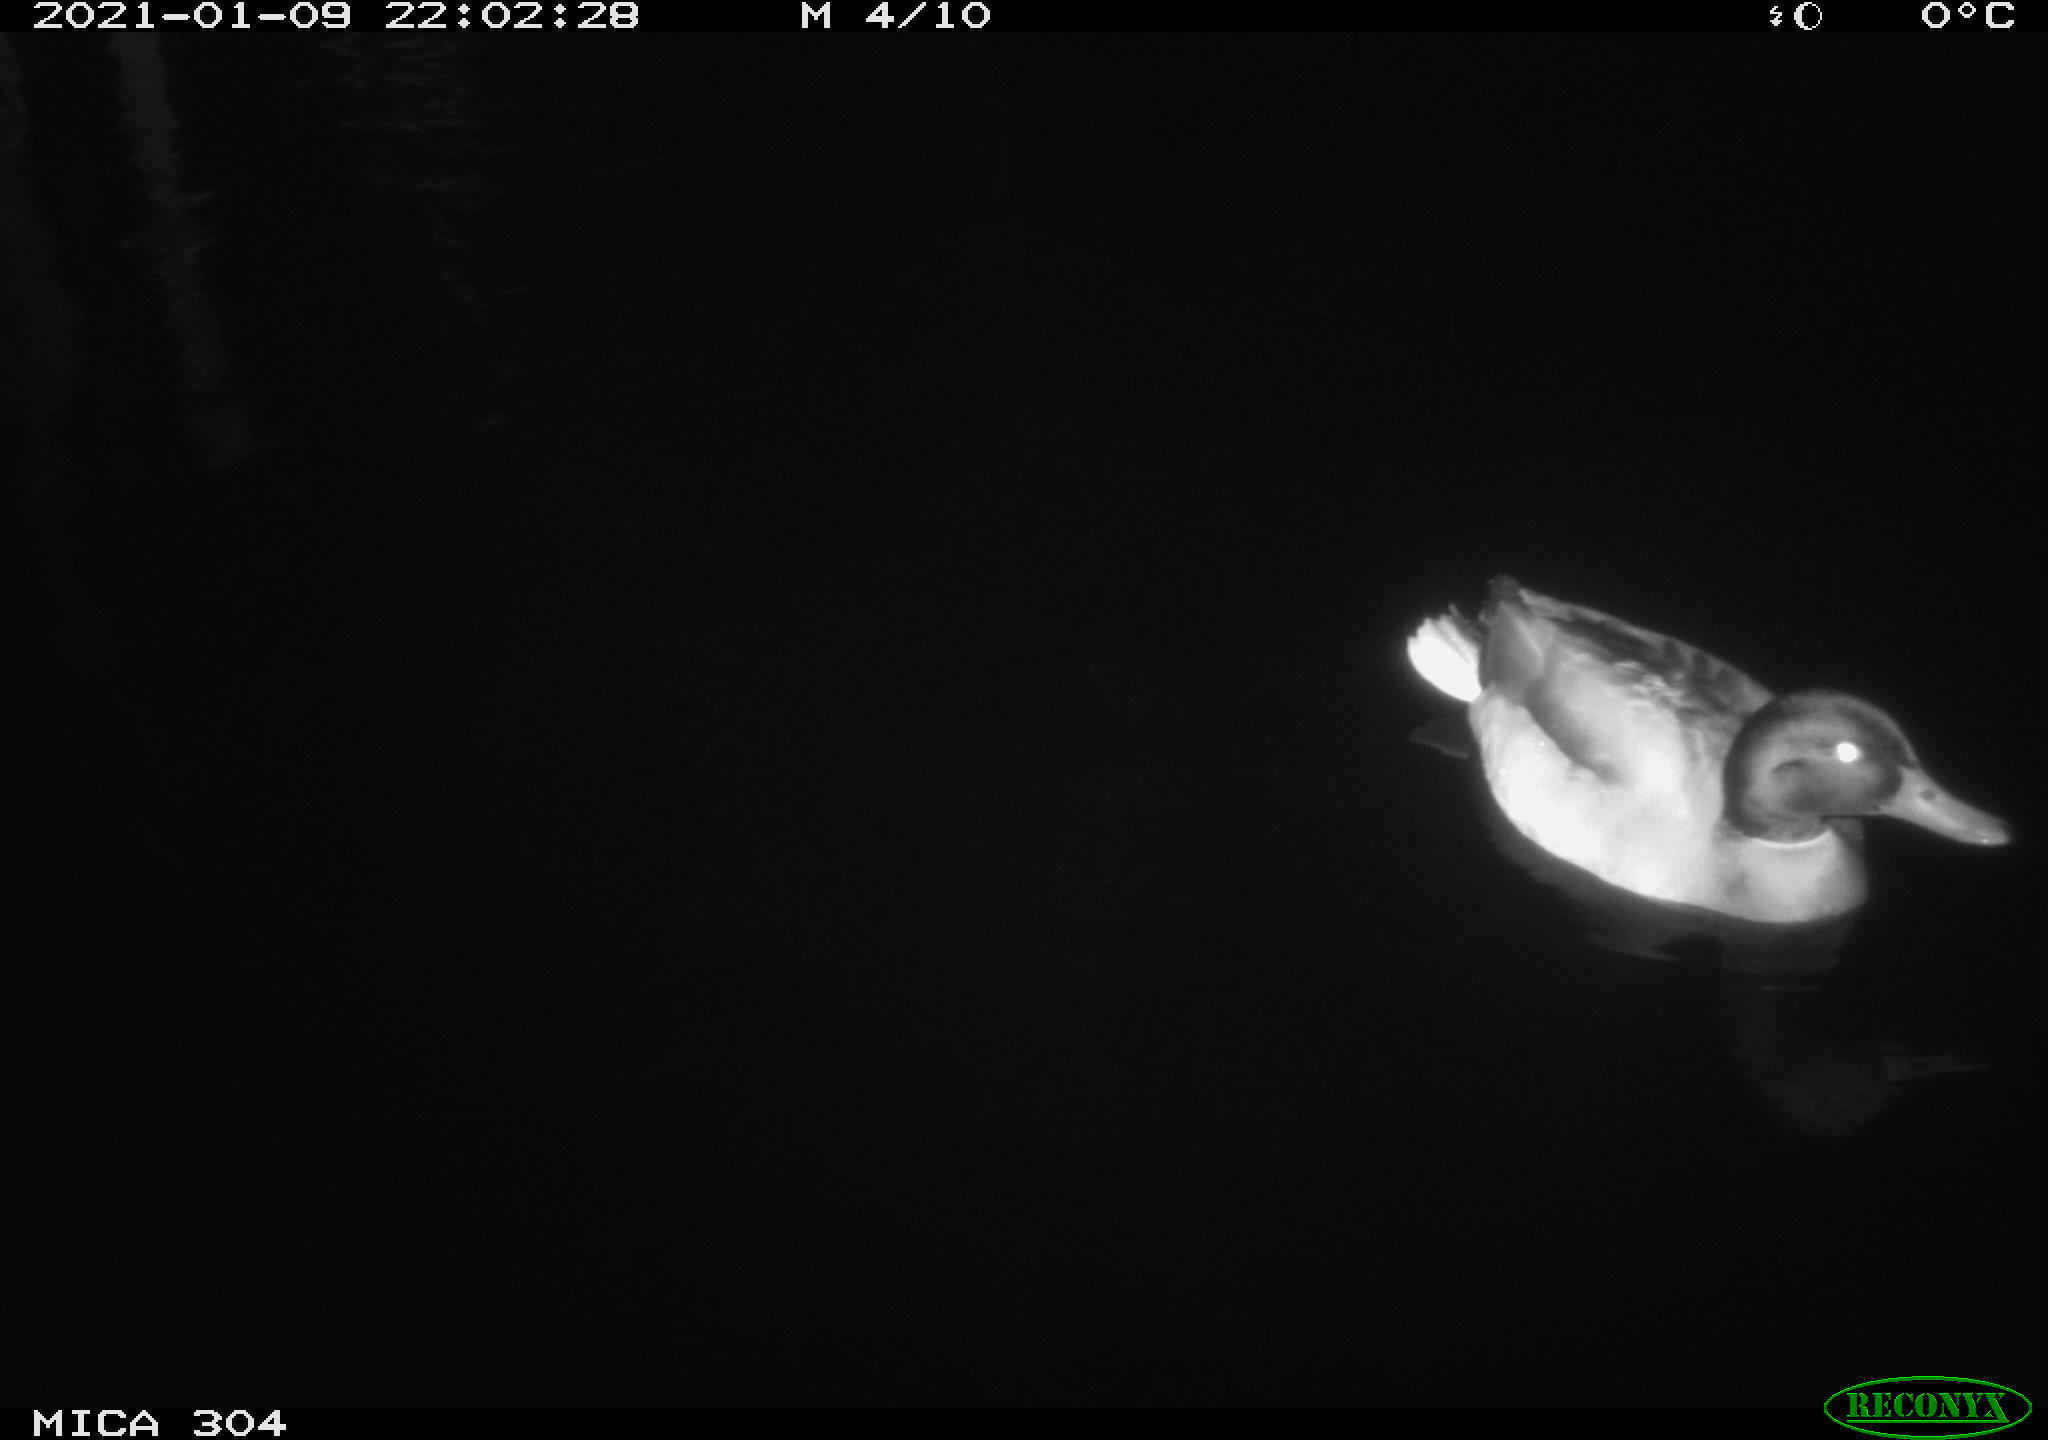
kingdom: Animalia
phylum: Chordata
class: Aves
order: Anseriformes
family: Anatidae
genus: Anas
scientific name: Anas platyrhynchos
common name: Mallard
